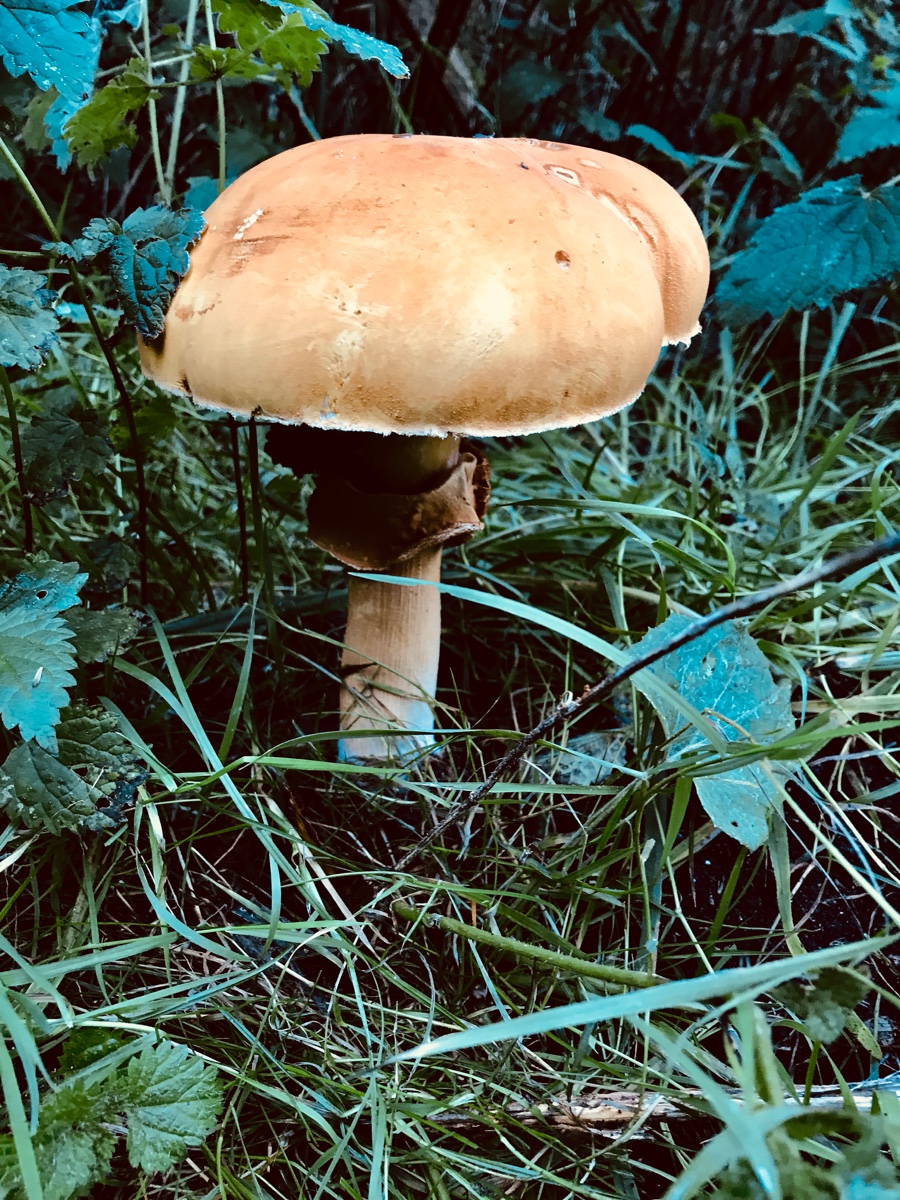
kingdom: Fungi
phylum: Basidiomycota
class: Agaricomycetes
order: Agaricales
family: Tricholomataceae
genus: Phaeolepiota
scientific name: Phaeolepiota aurea
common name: gyldenhat
